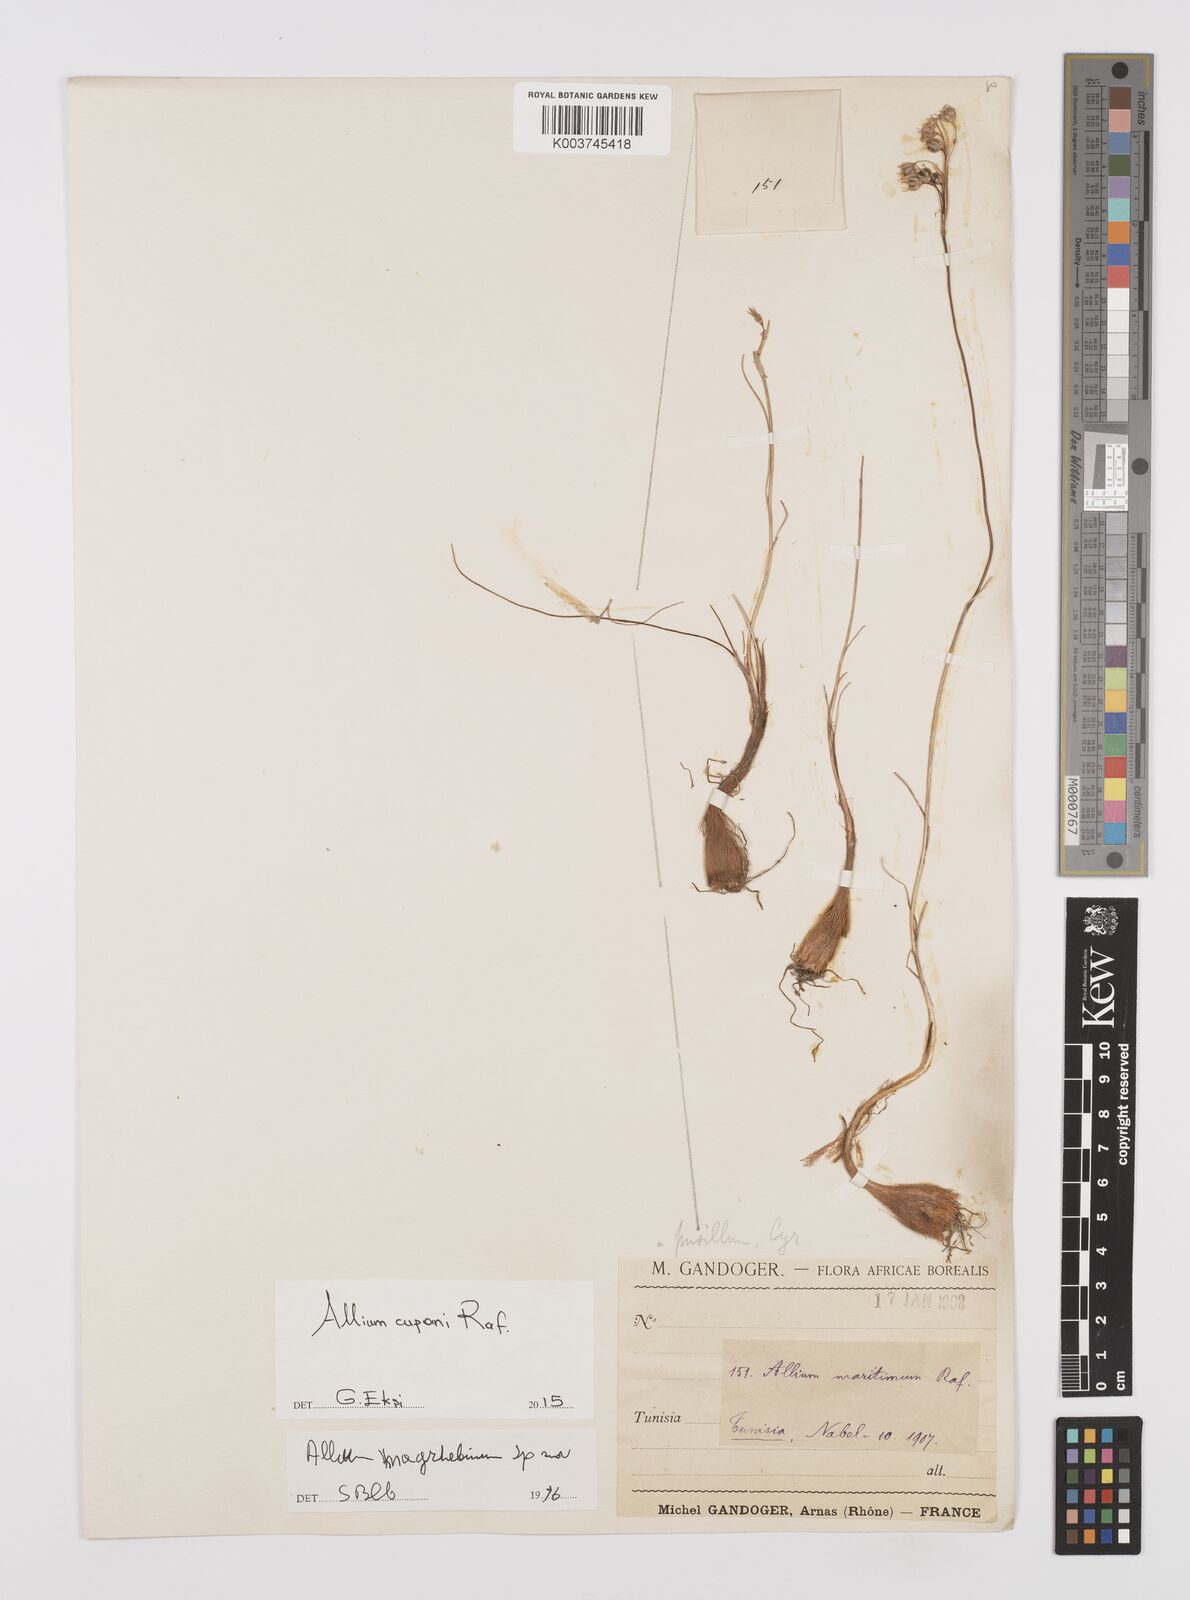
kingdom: Plantae
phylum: Tracheophyta
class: Liliopsida
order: Asparagales
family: Amaryllidaceae
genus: Allium
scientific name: Allium cupani
